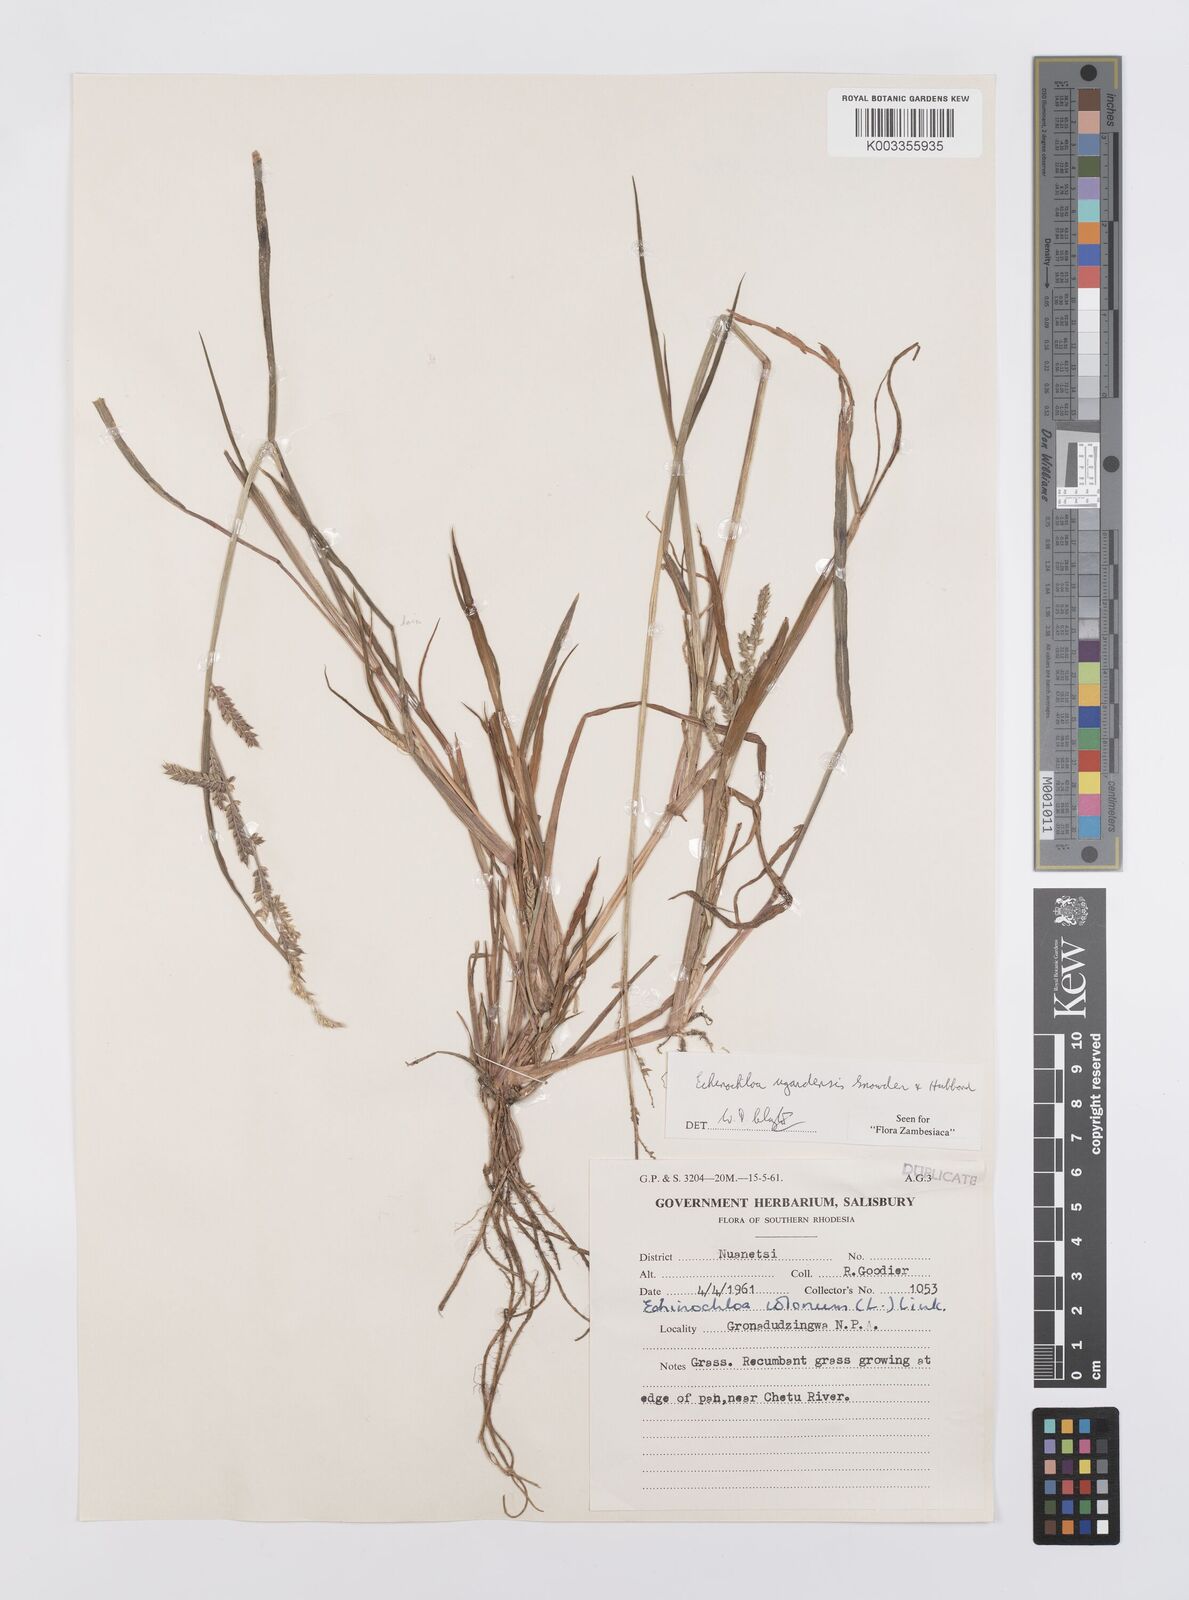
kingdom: Plantae
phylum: Tracheophyta
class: Liliopsida
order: Poales
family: Poaceae
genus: Echinochloa
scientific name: Echinochloa ugandensis
